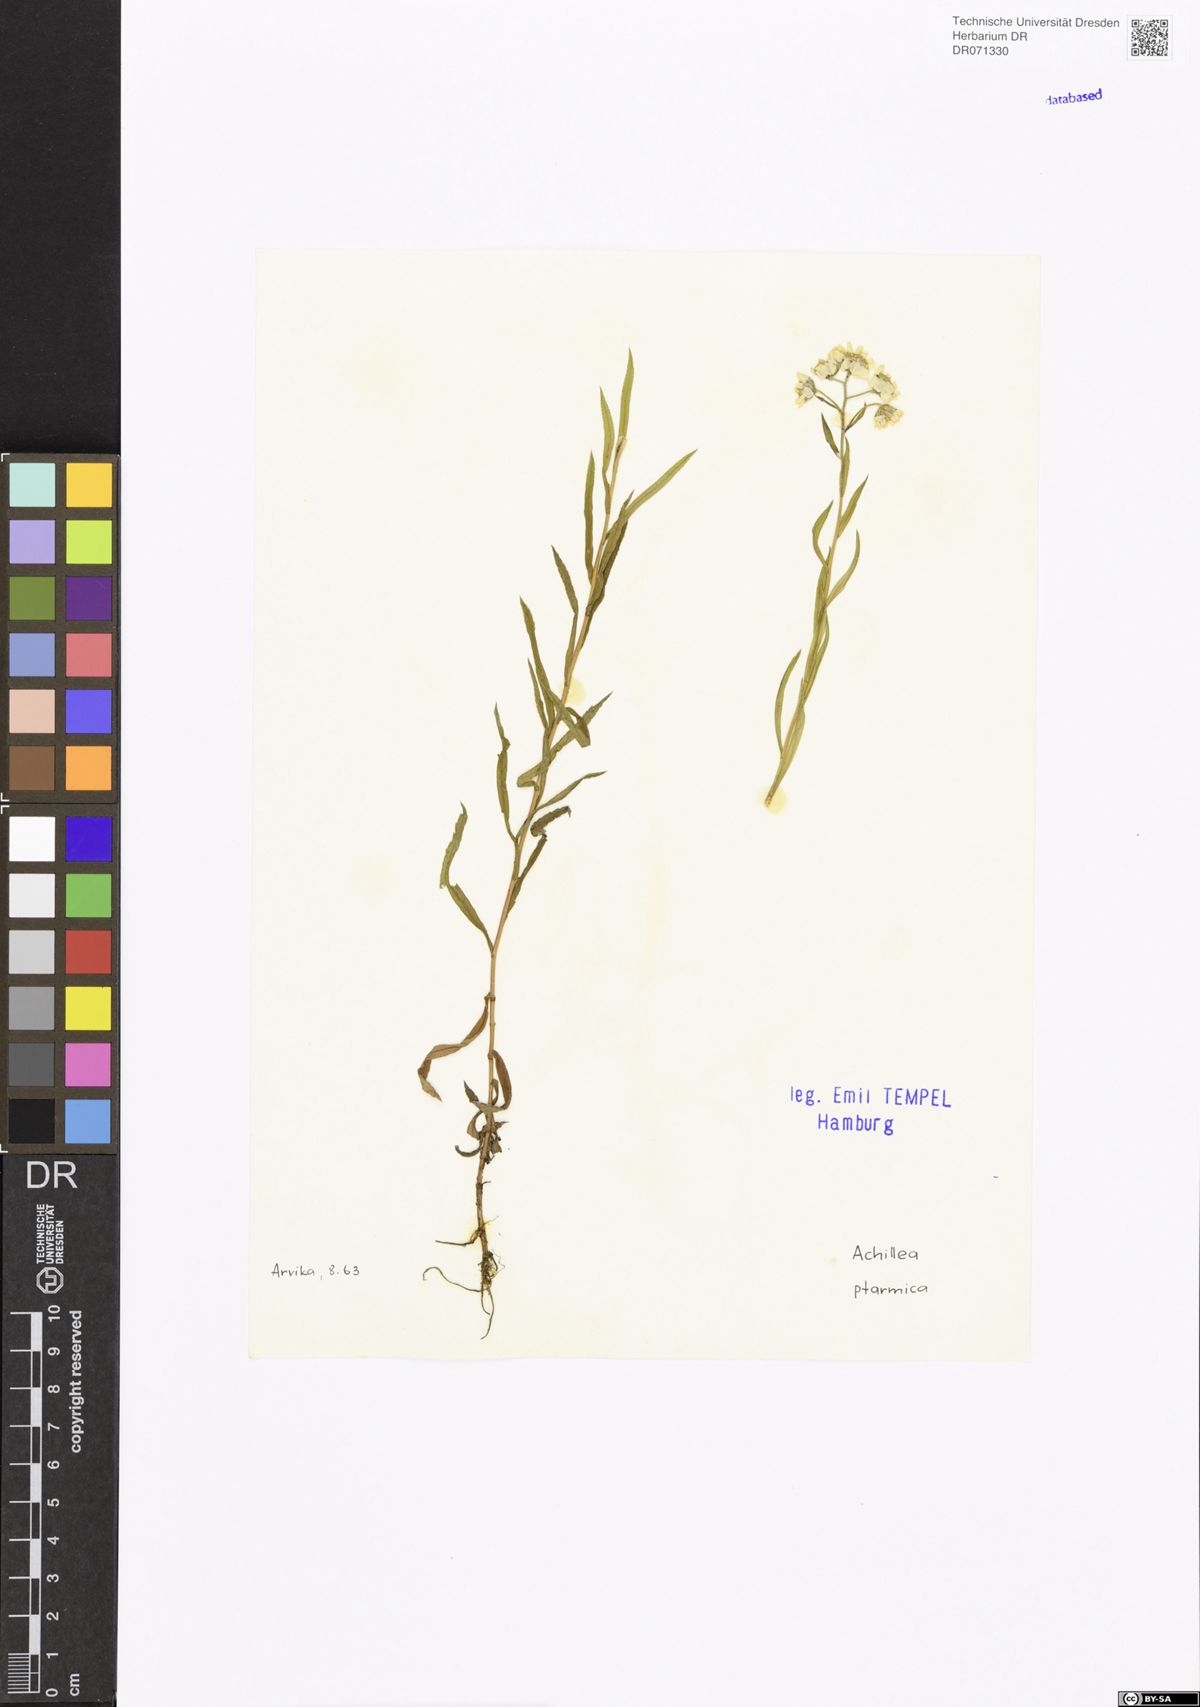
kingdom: Plantae
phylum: Tracheophyta
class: Magnoliopsida
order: Asterales
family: Asteraceae
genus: Achillea
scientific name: Achillea ptarmica
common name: Sneezeweed
